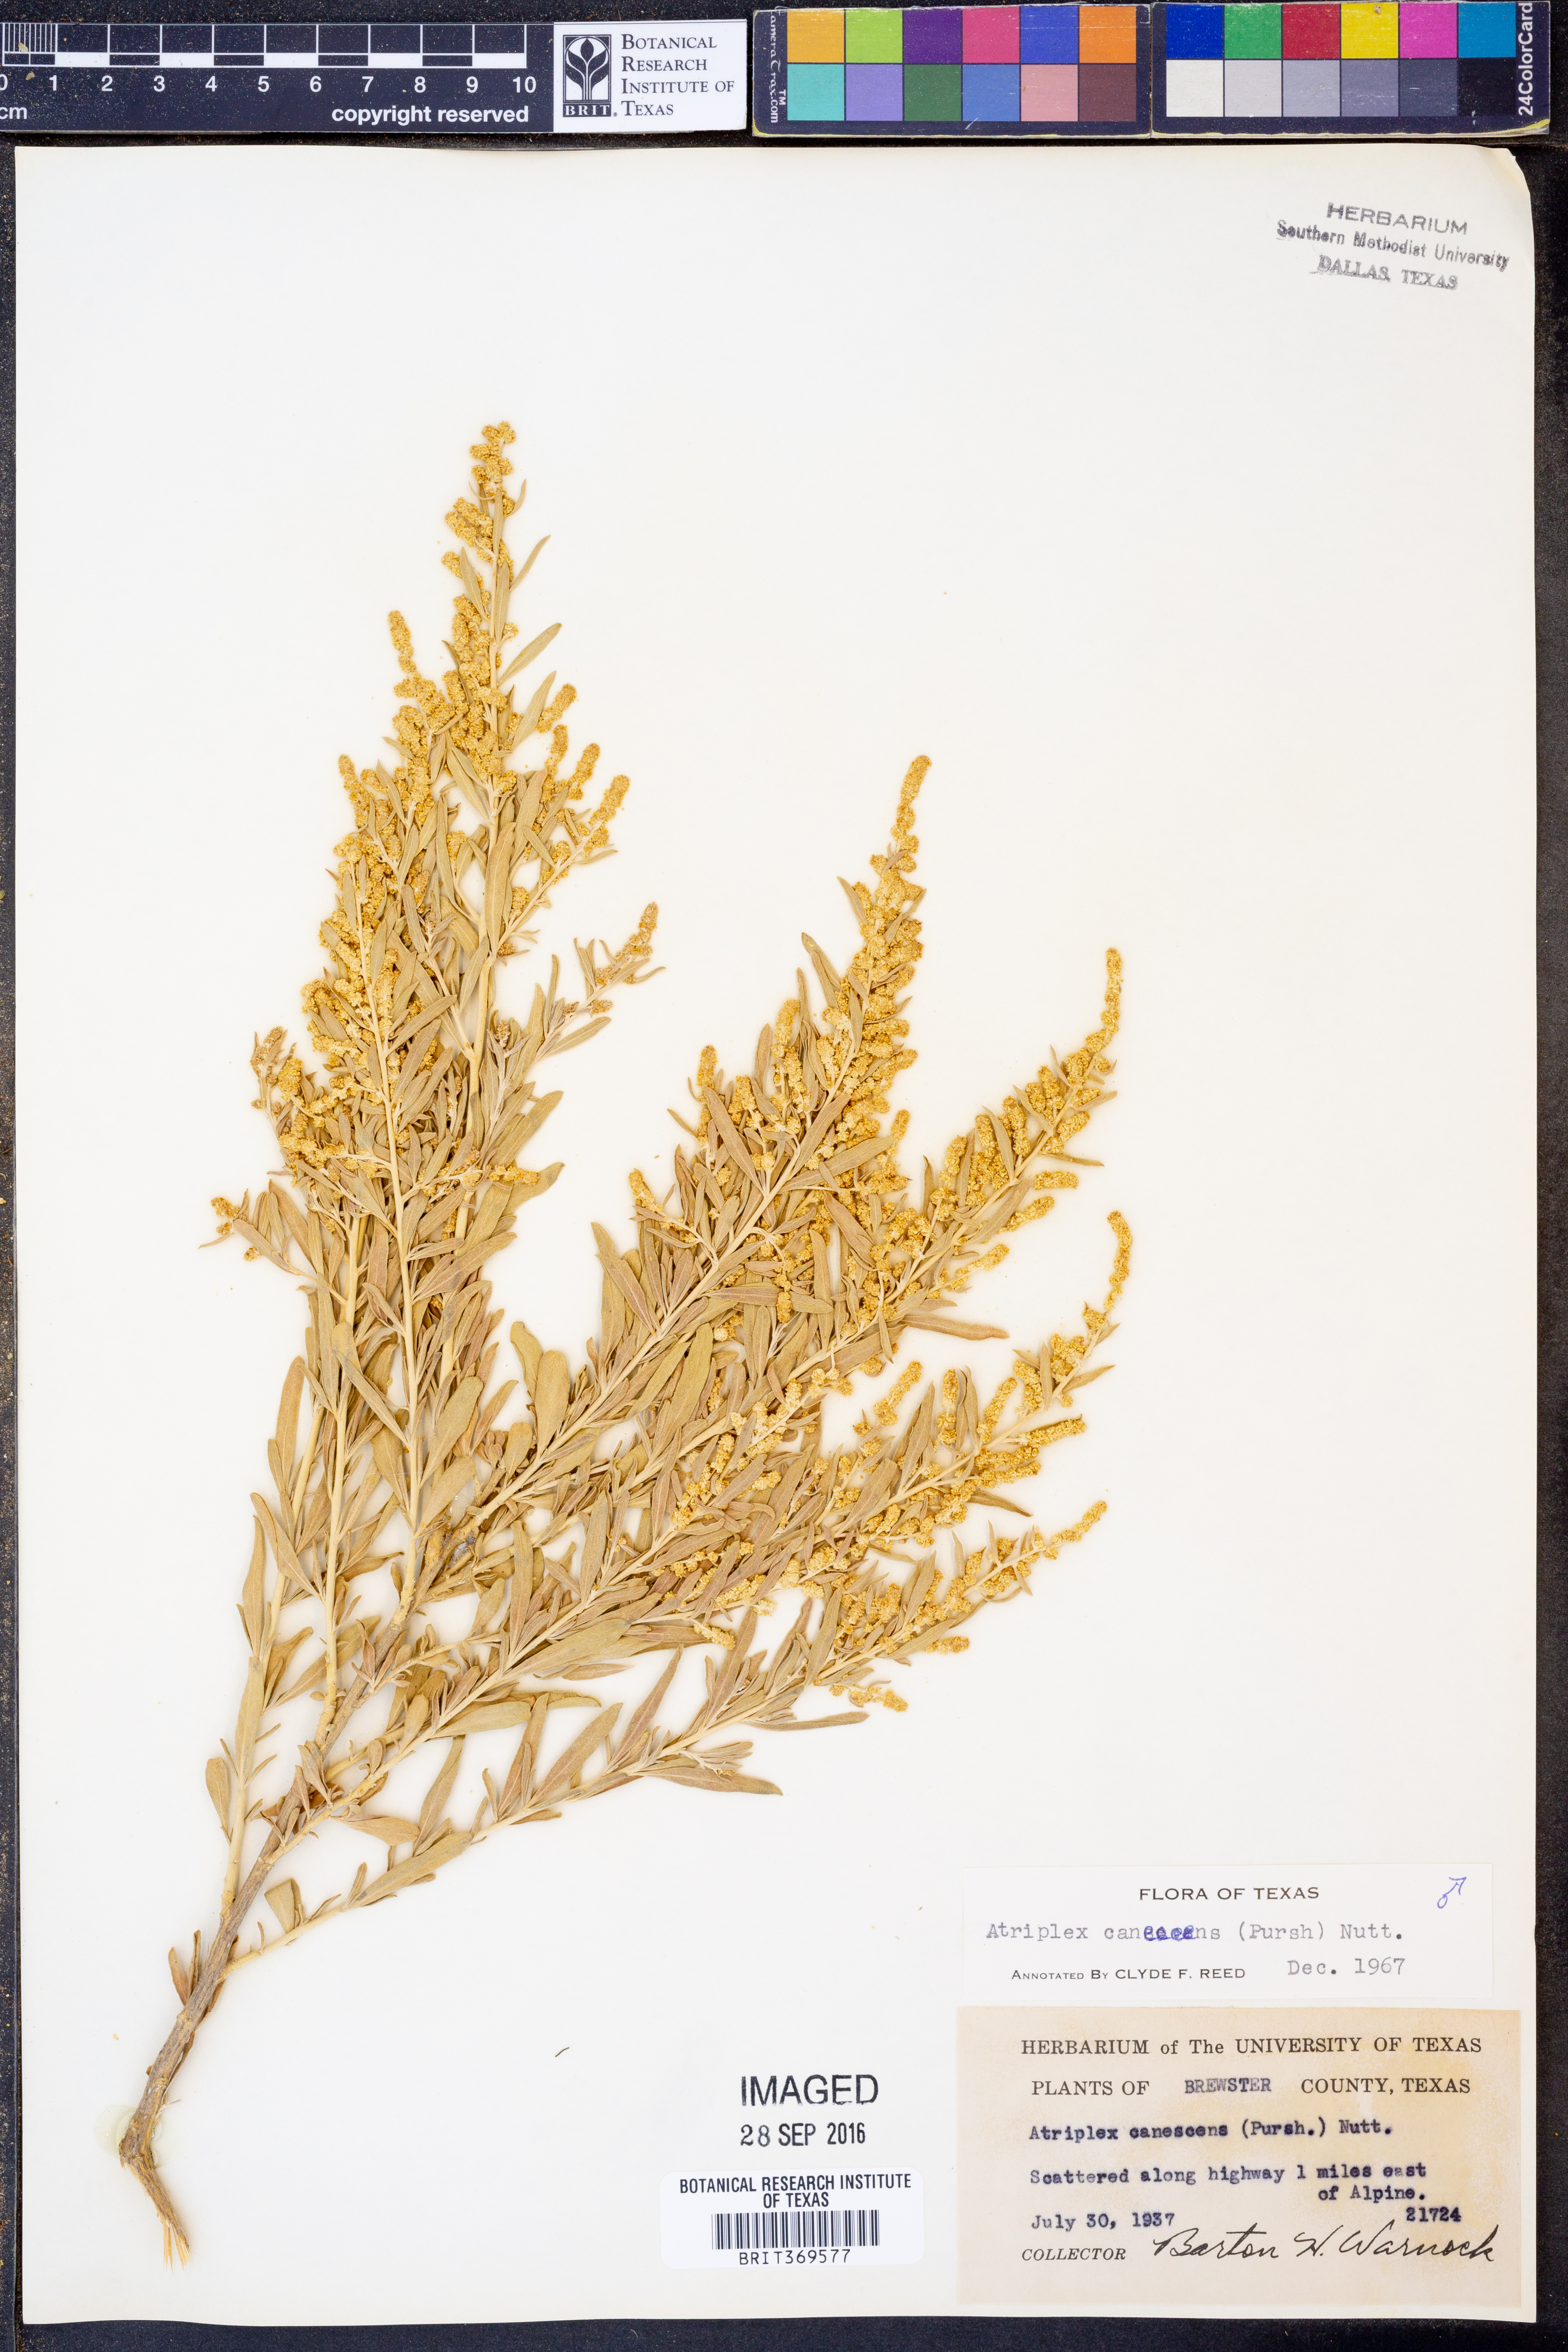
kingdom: Plantae
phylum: Tracheophyta
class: Magnoliopsida
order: Caryophyllales
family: Amaranthaceae
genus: Atriplex
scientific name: Atriplex canescens
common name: Four-wing saltbush
